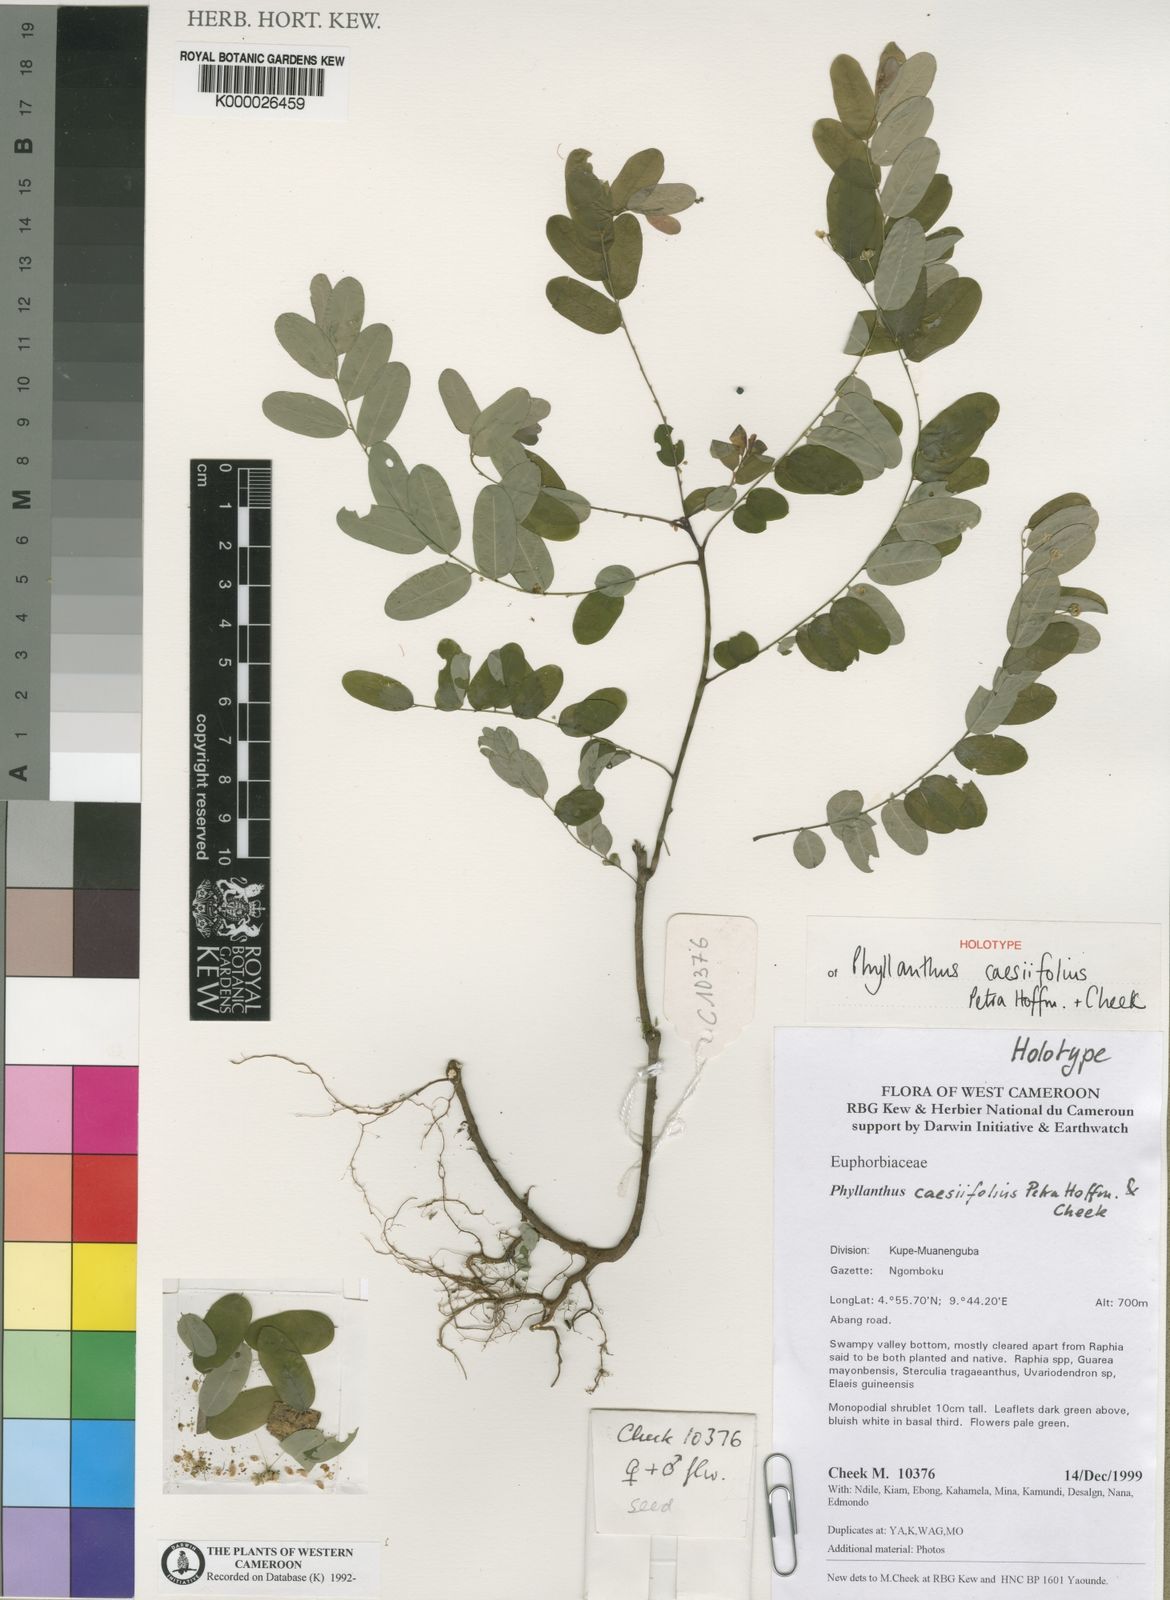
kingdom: Plantae
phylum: Tracheophyta
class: Magnoliopsida
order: Malpighiales
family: Phyllanthaceae
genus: Phyllanthus
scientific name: Phyllanthus caesiifolius
